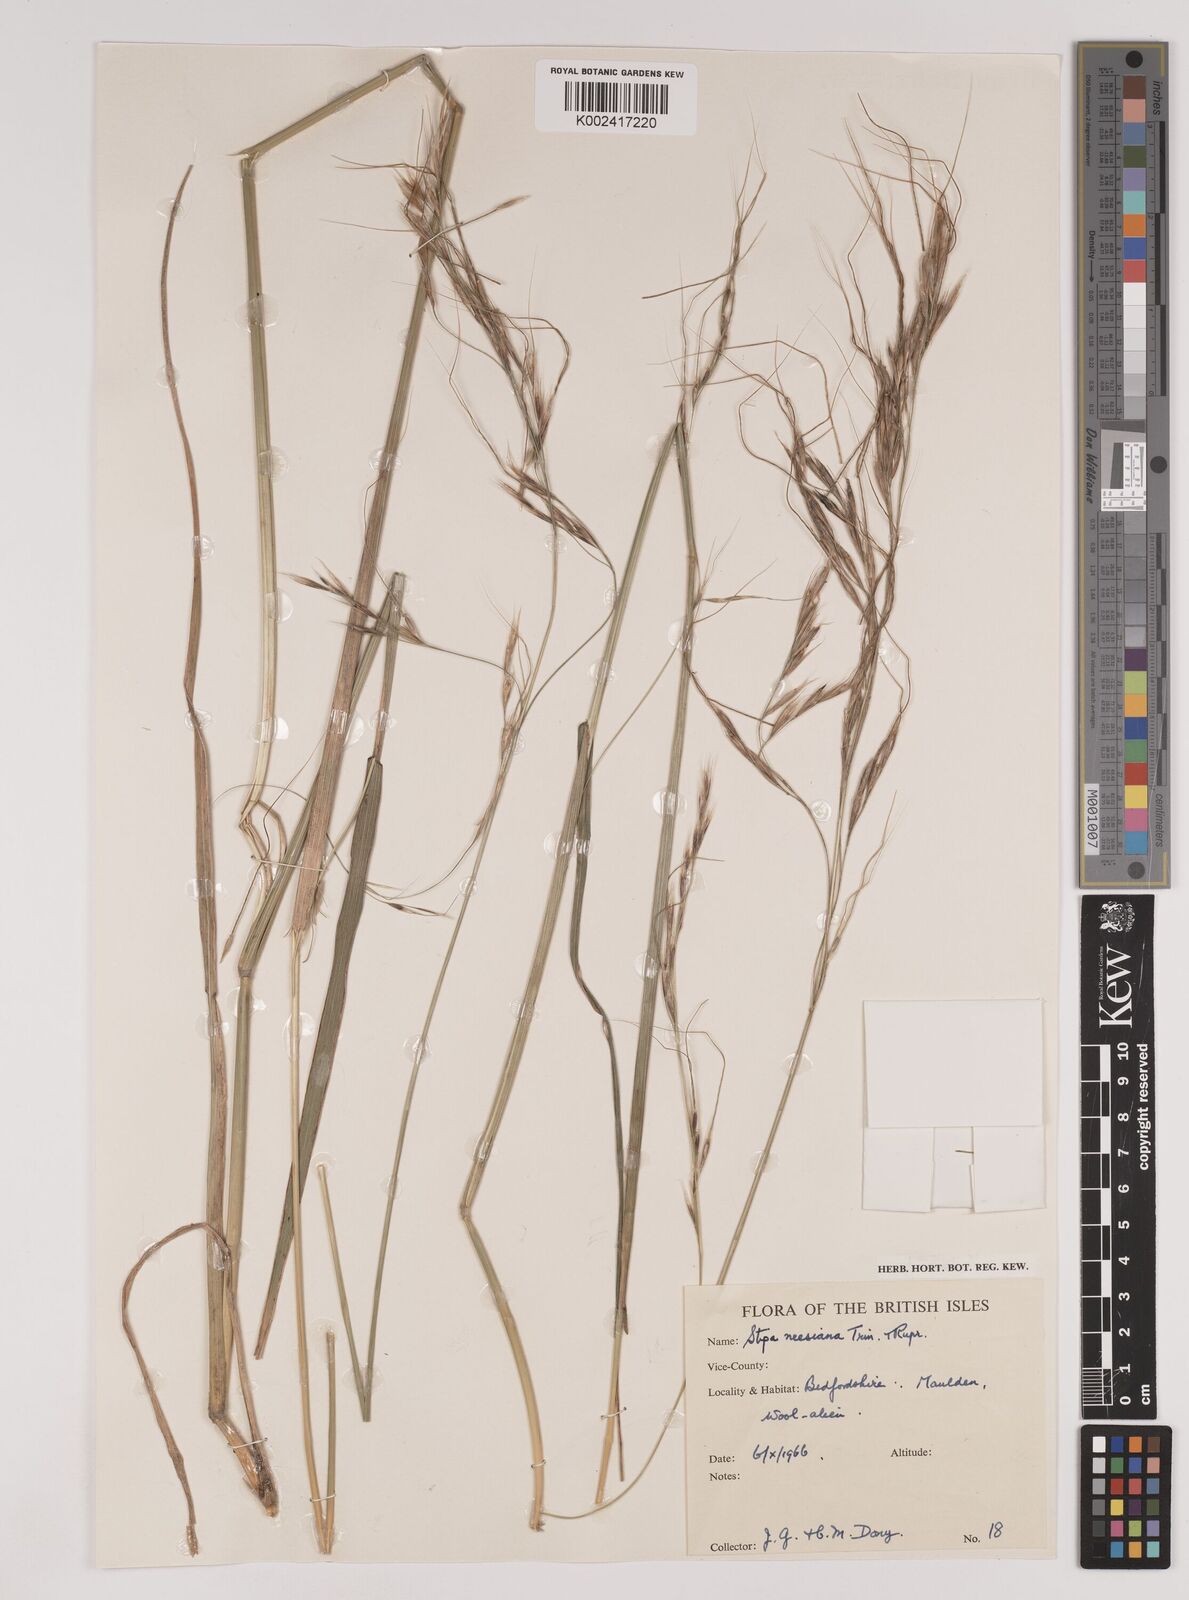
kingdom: Plantae
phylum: Tracheophyta
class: Liliopsida
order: Poales
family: Poaceae
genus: Nassella
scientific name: Nassella neesiana
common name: American needle-grass
